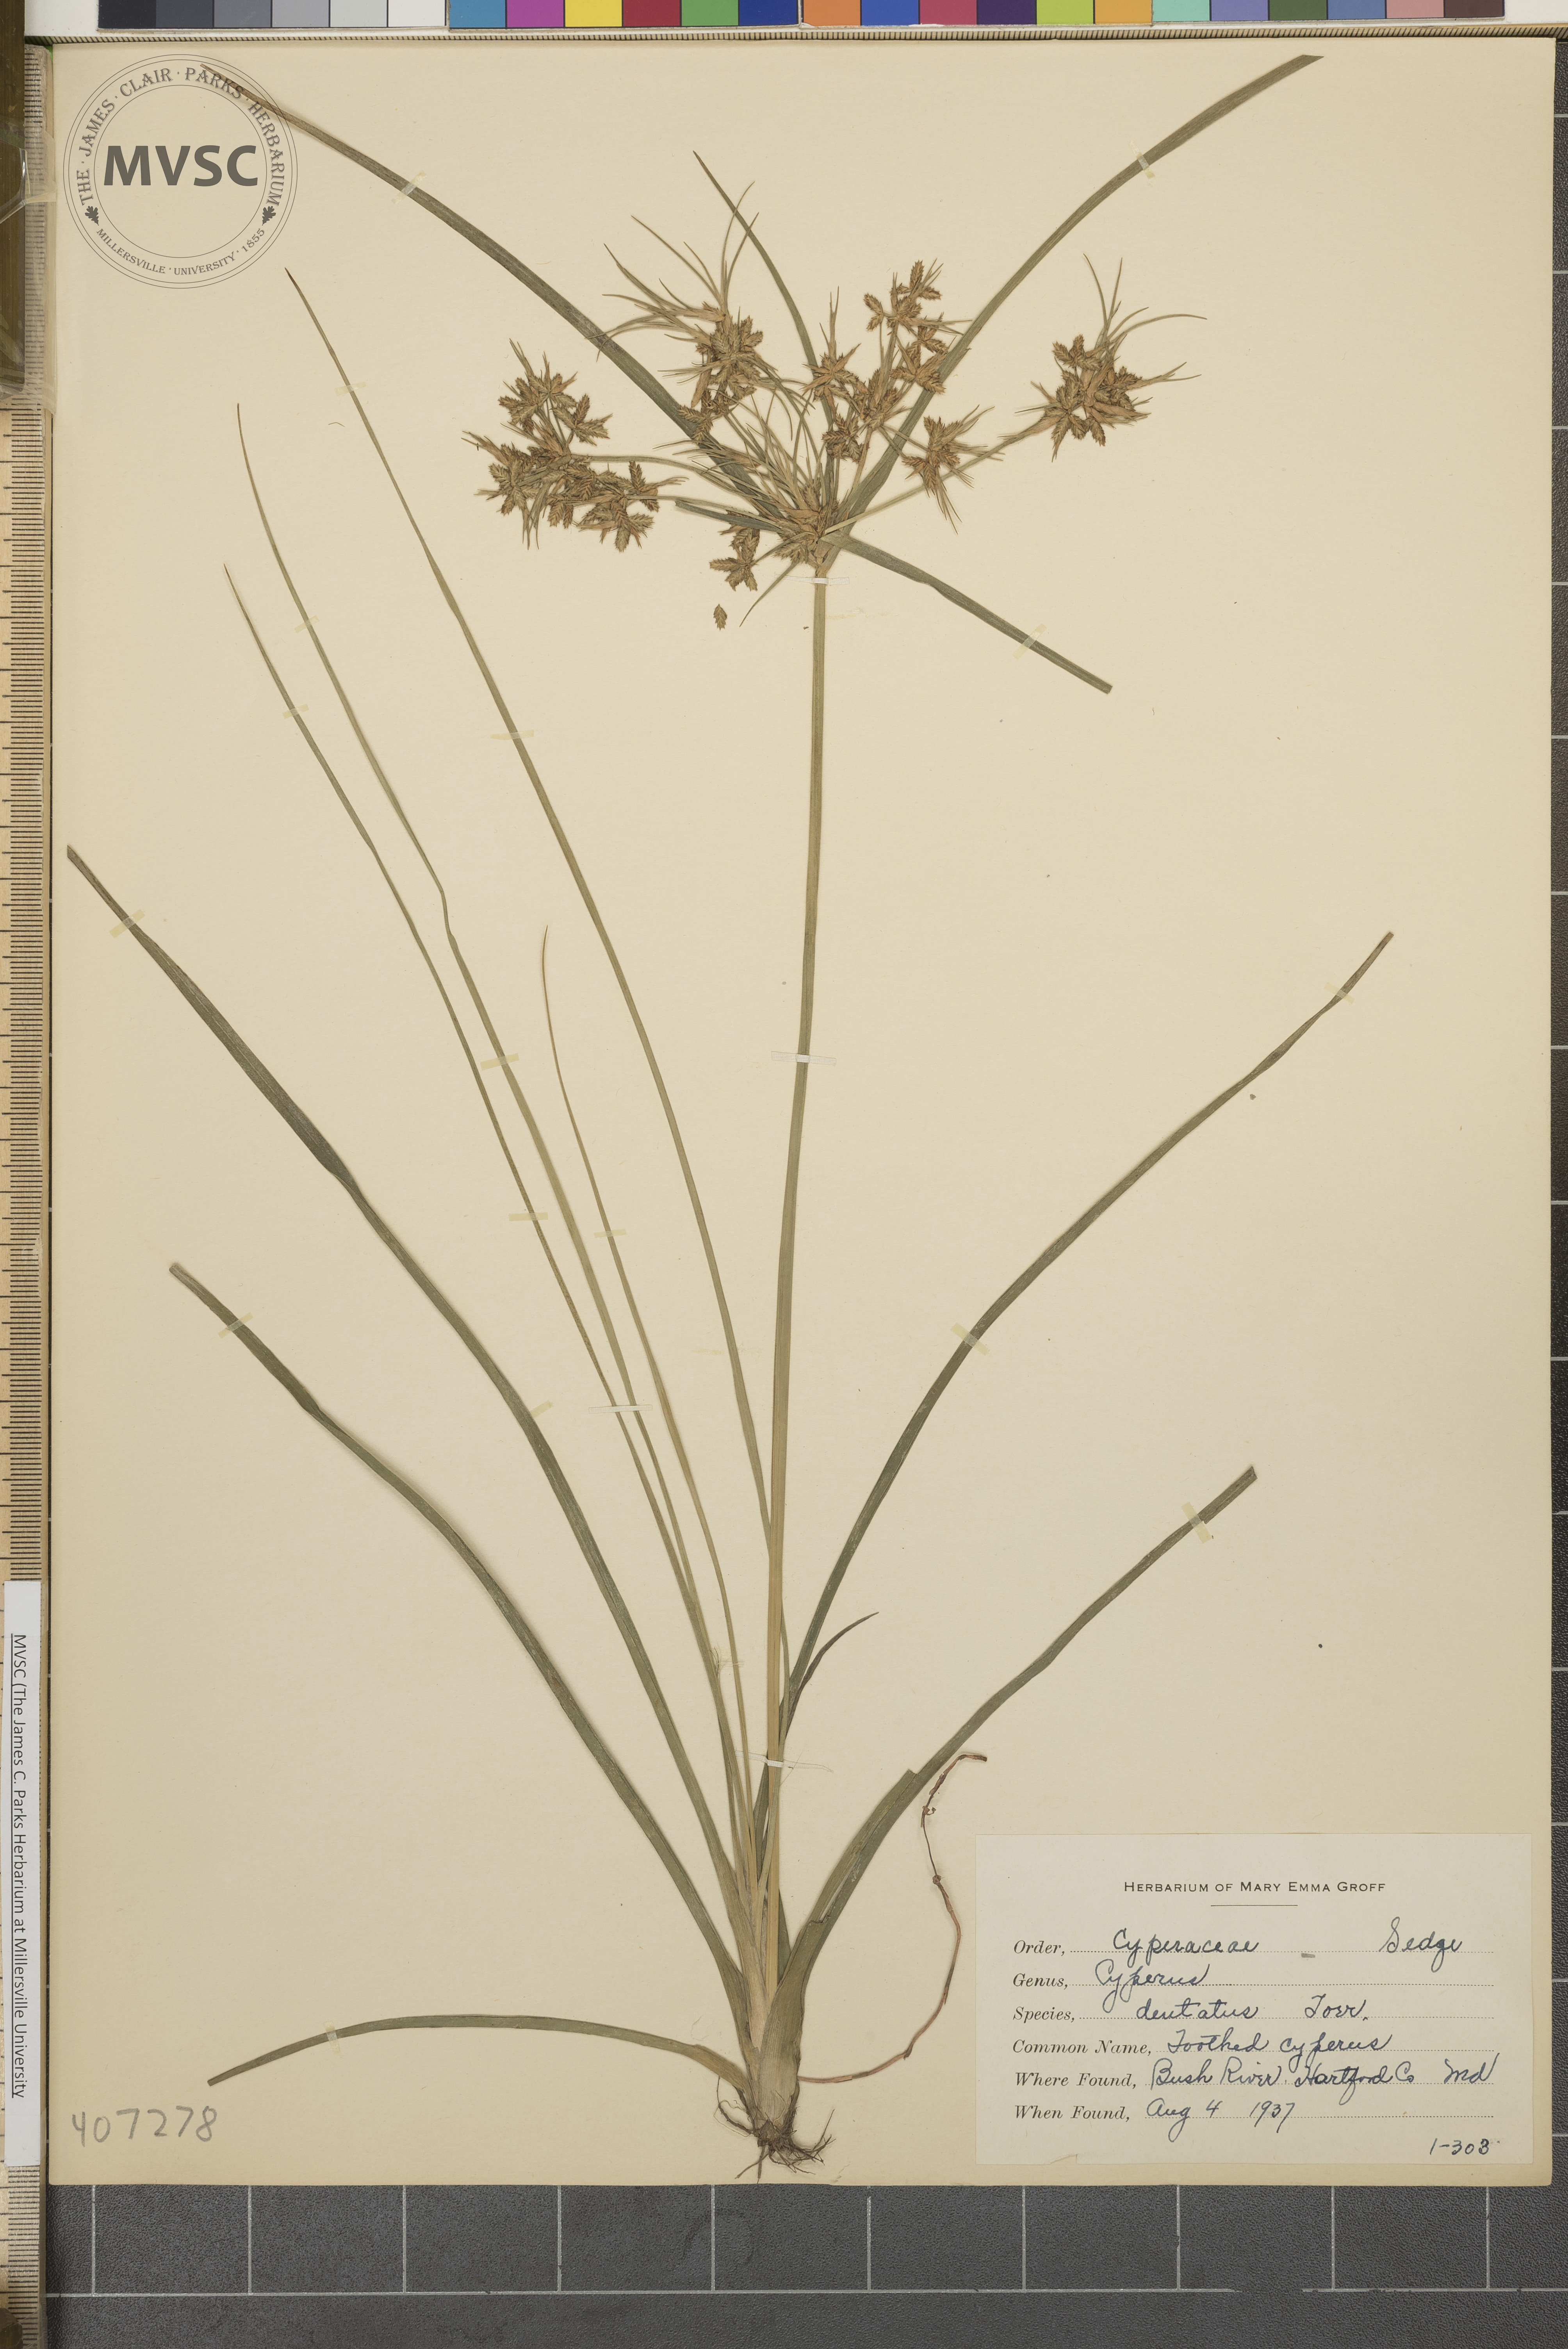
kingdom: Plantae
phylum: Tracheophyta
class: Liliopsida
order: Poales
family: Cyperaceae
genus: Cyperus
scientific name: Cyperus dentatus
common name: Toothed Cyperus
